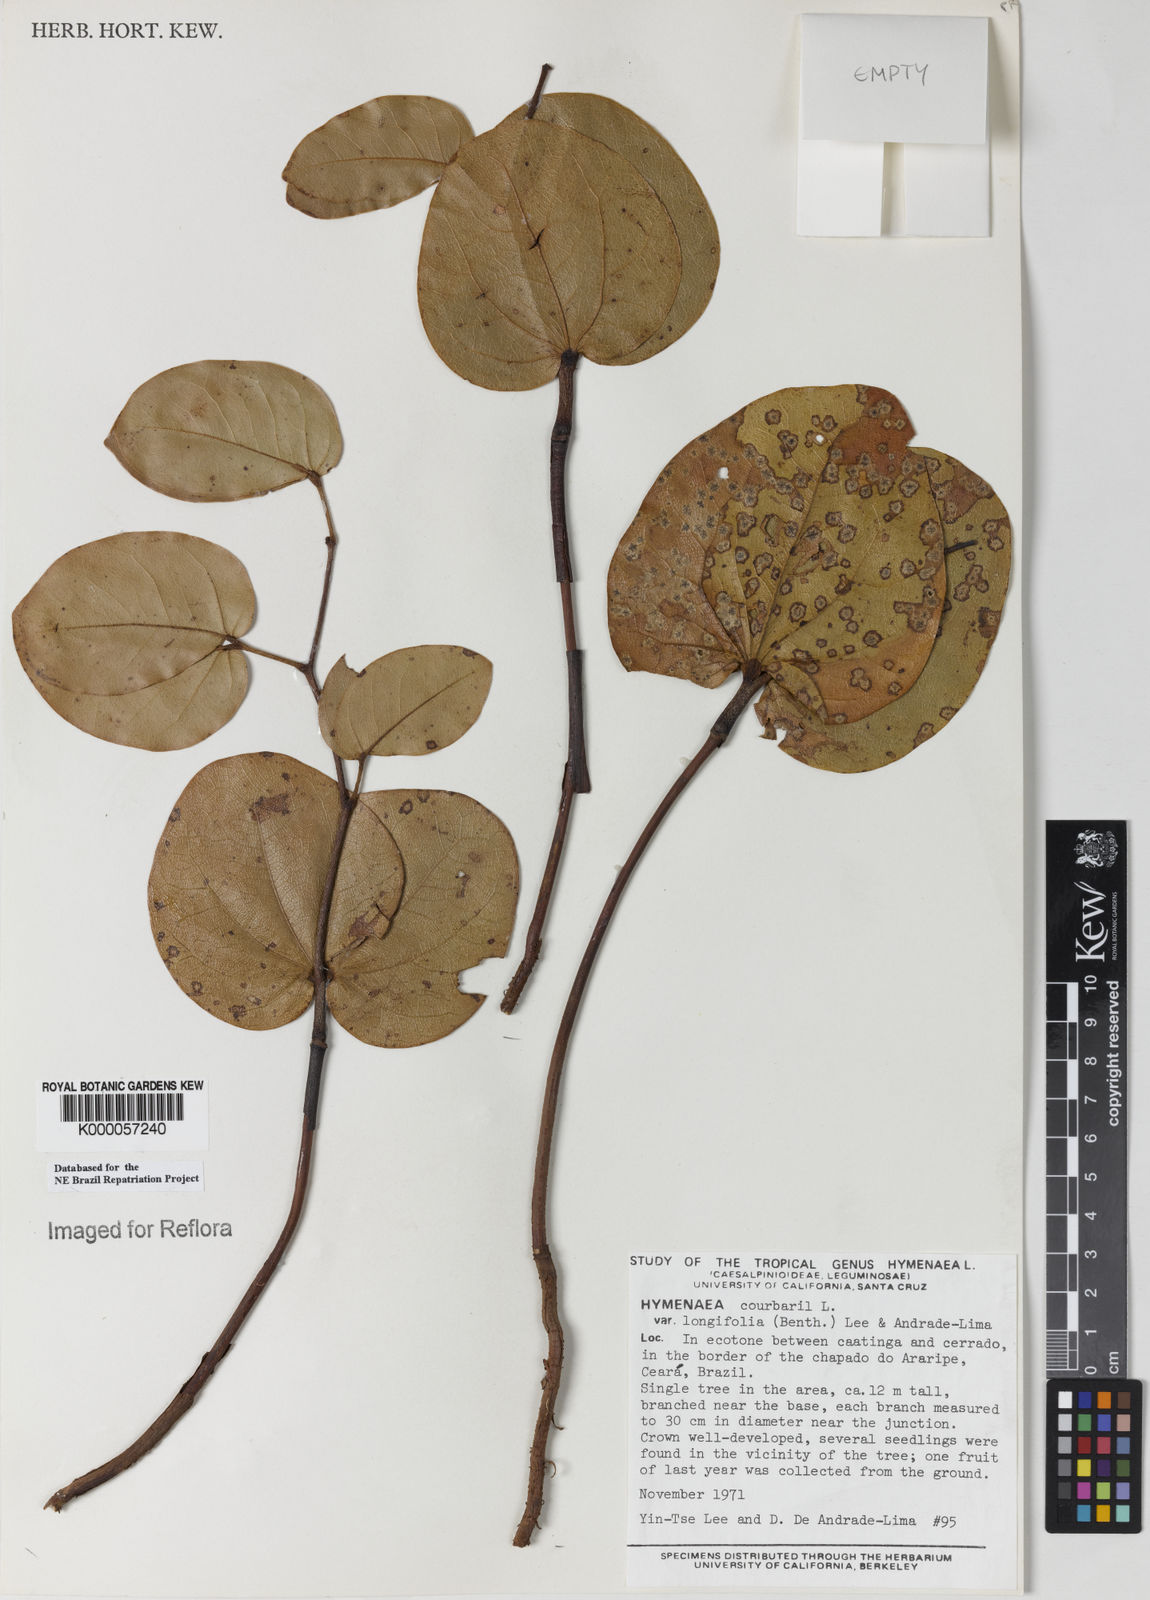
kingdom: Plantae
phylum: Tracheophyta
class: Magnoliopsida
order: Fabales
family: Fabaceae
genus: Hymenaea
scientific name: Hymenaea longifolia
